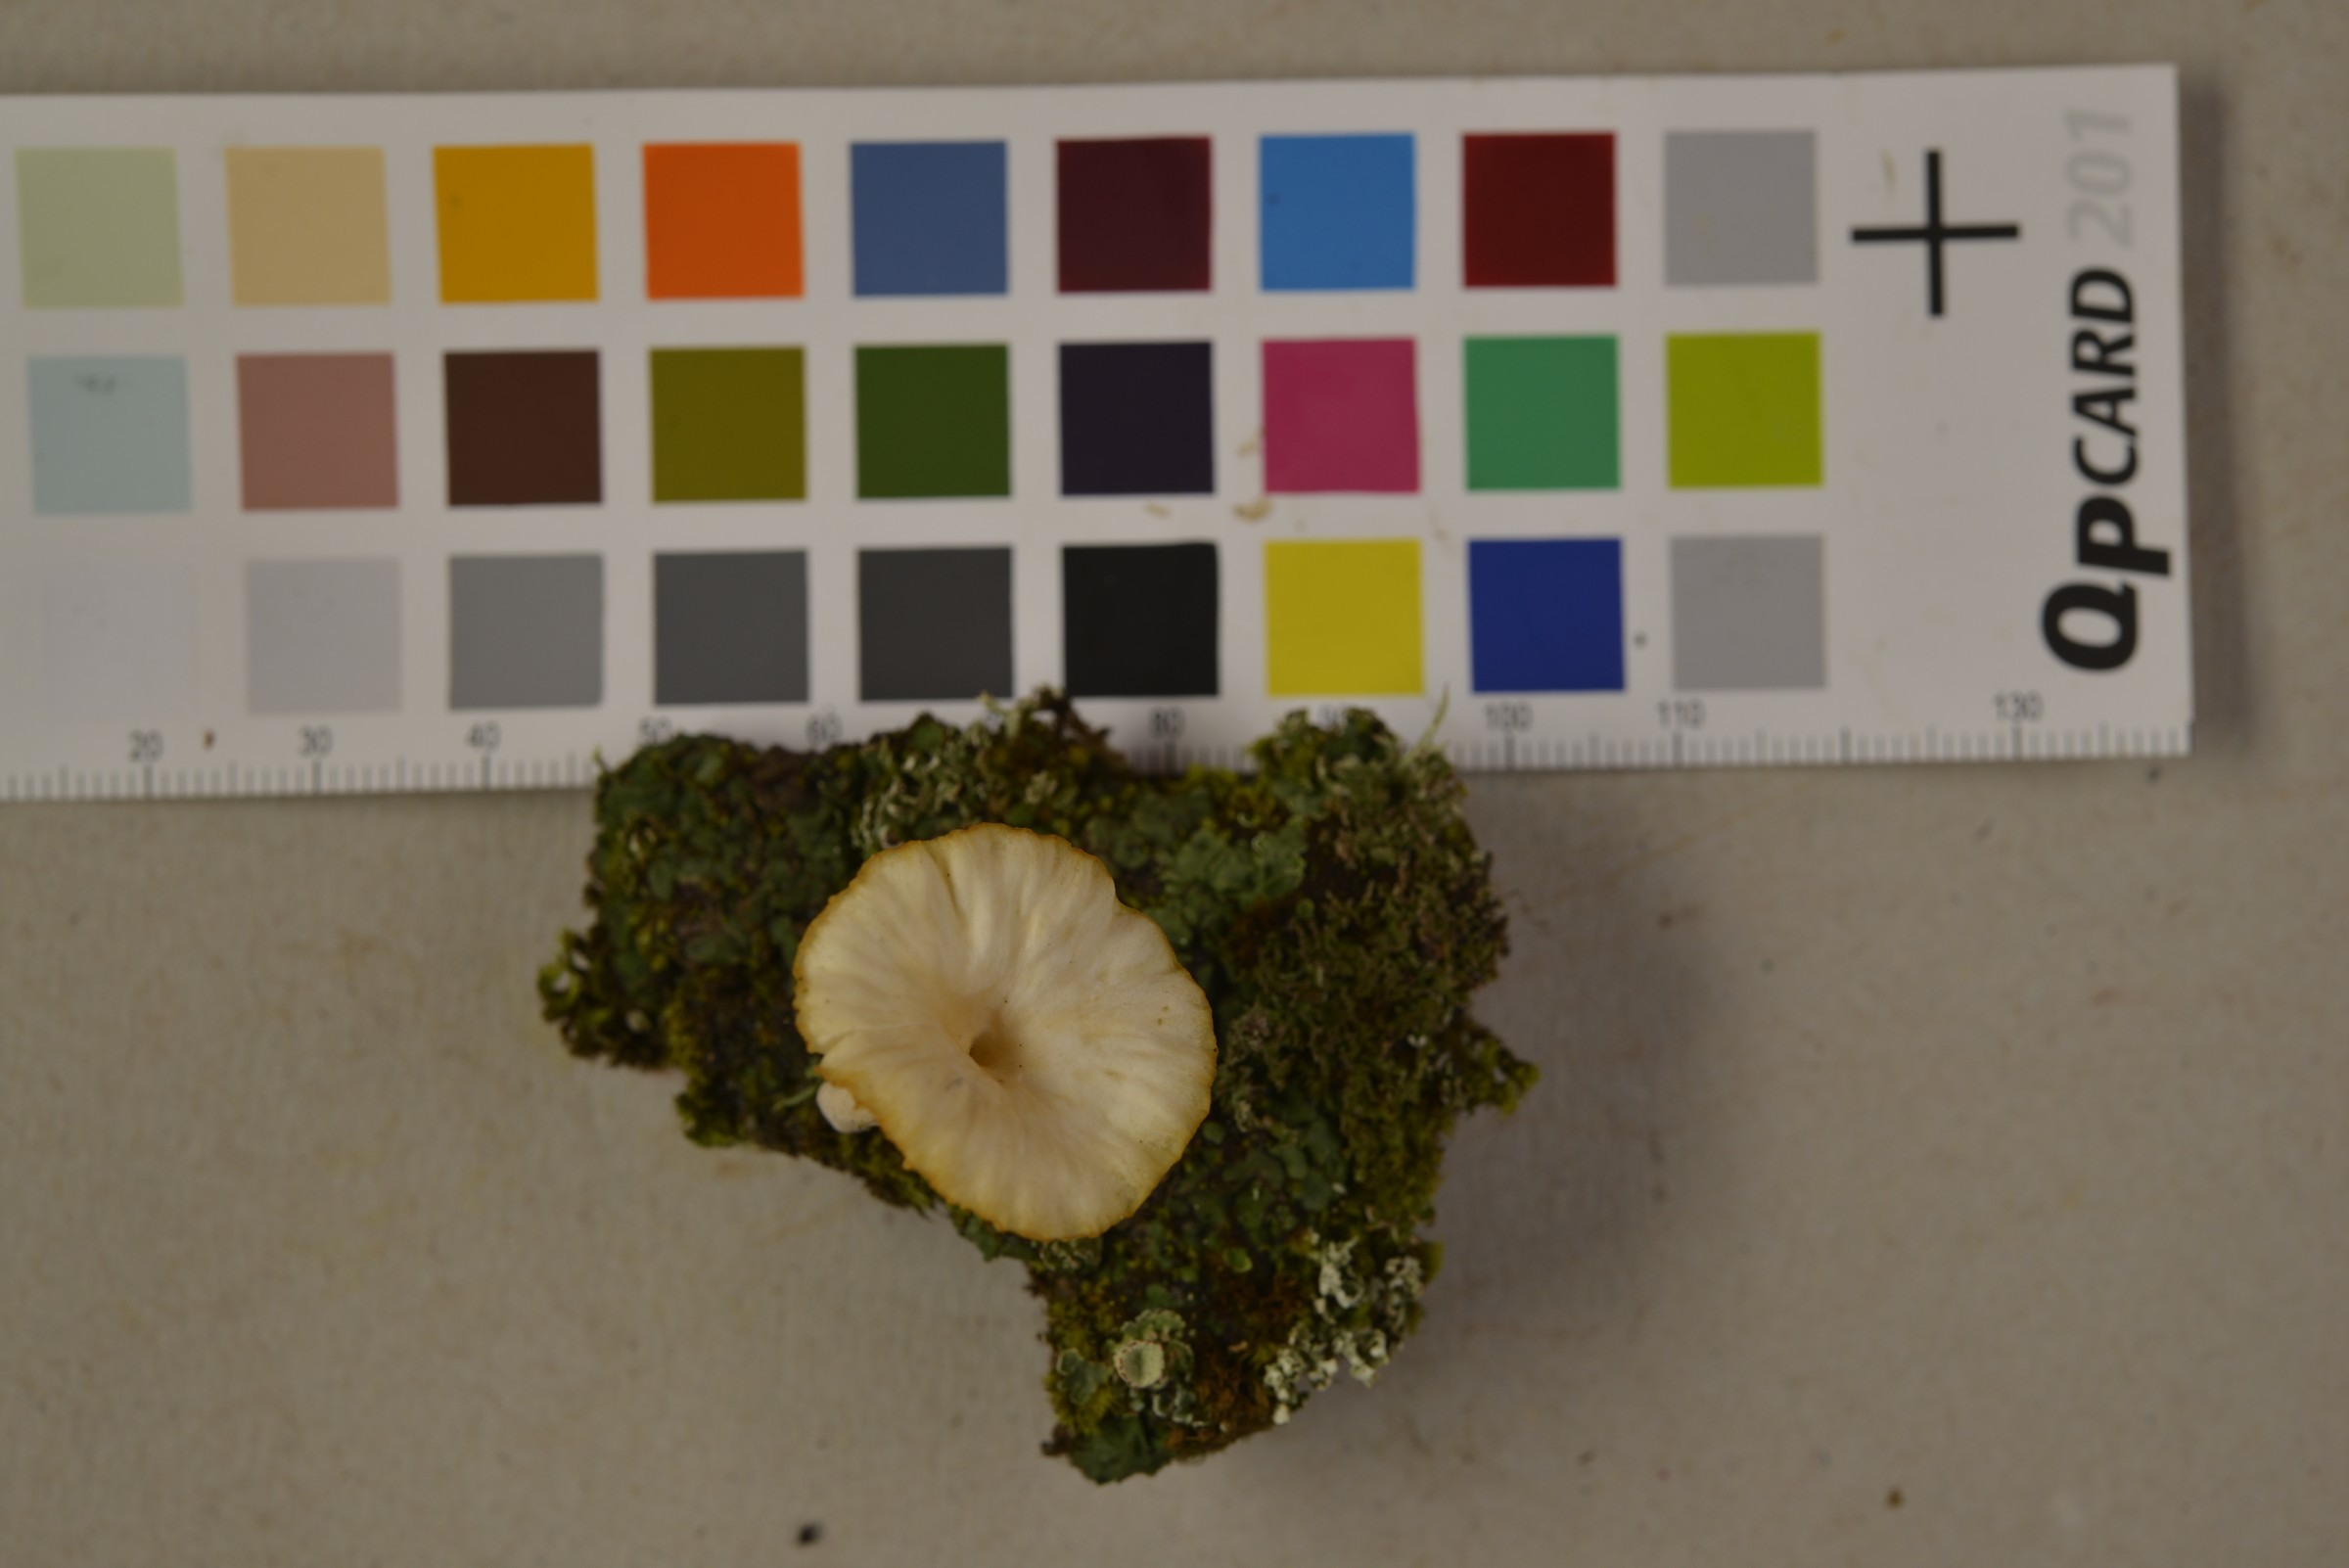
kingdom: Fungi
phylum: Basidiomycota
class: Agaricomycetes
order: Agaricales
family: Hygrophoraceae
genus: Lichenomphalia
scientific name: Lichenomphalia hudsoniana
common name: Arctic mushroom scales lichen
